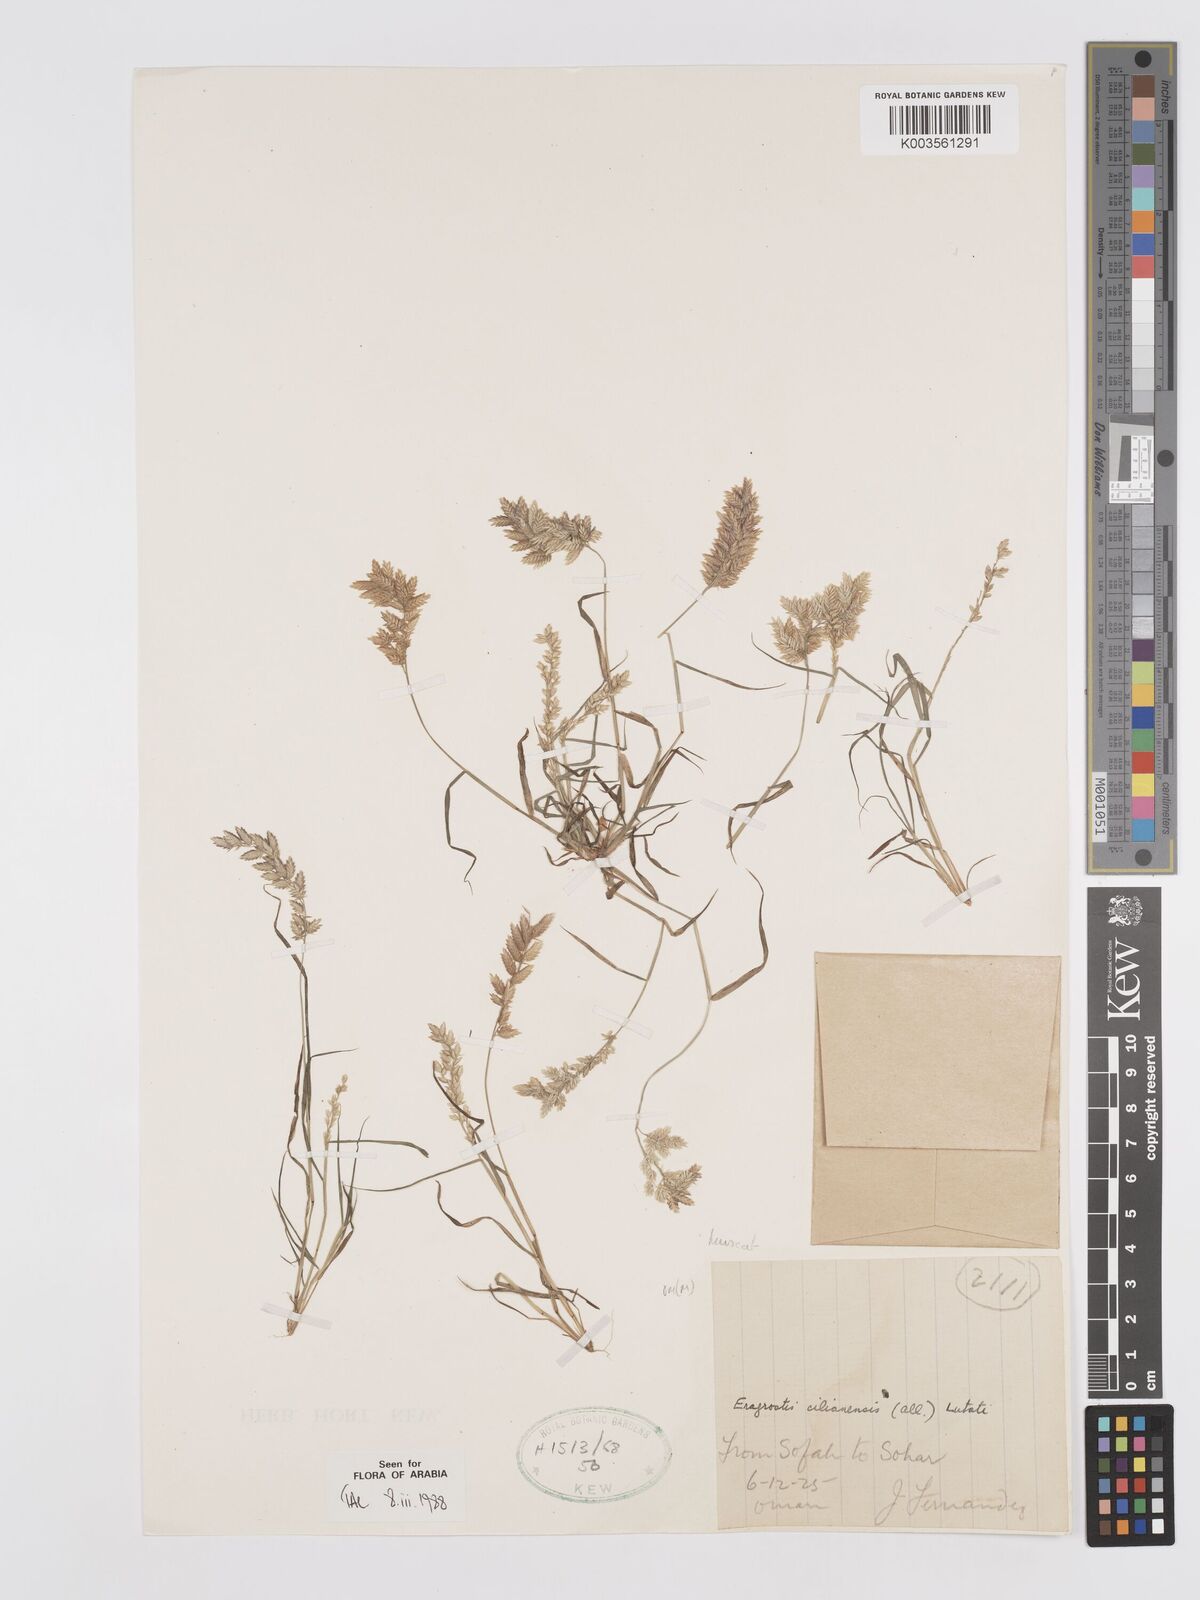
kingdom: Plantae
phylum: Tracheophyta
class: Liliopsida
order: Poales
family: Poaceae
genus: Eragrostis
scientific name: Eragrostis cilianensis
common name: Stinkgrass
